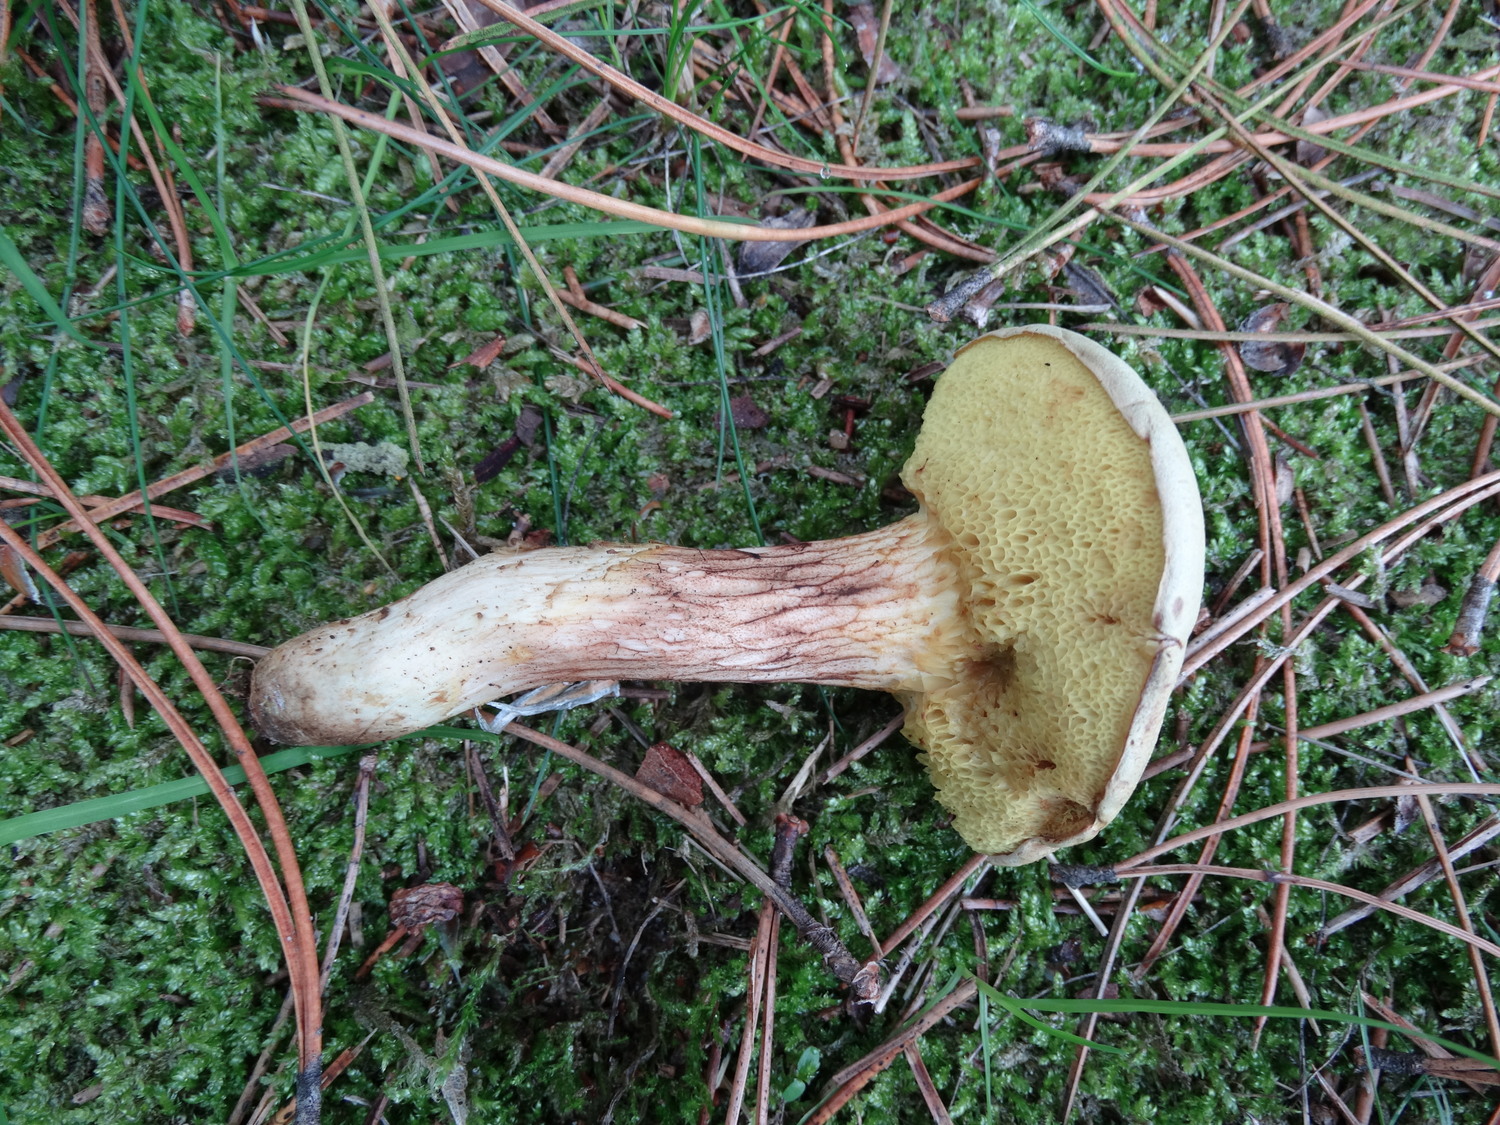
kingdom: Fungi
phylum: Basidiomycota
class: Agaricomycetes
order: Boletales
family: Boletaceae
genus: Xerocomus
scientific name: Xerocomus ferrugineus
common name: vaskeskinds-rørhat
